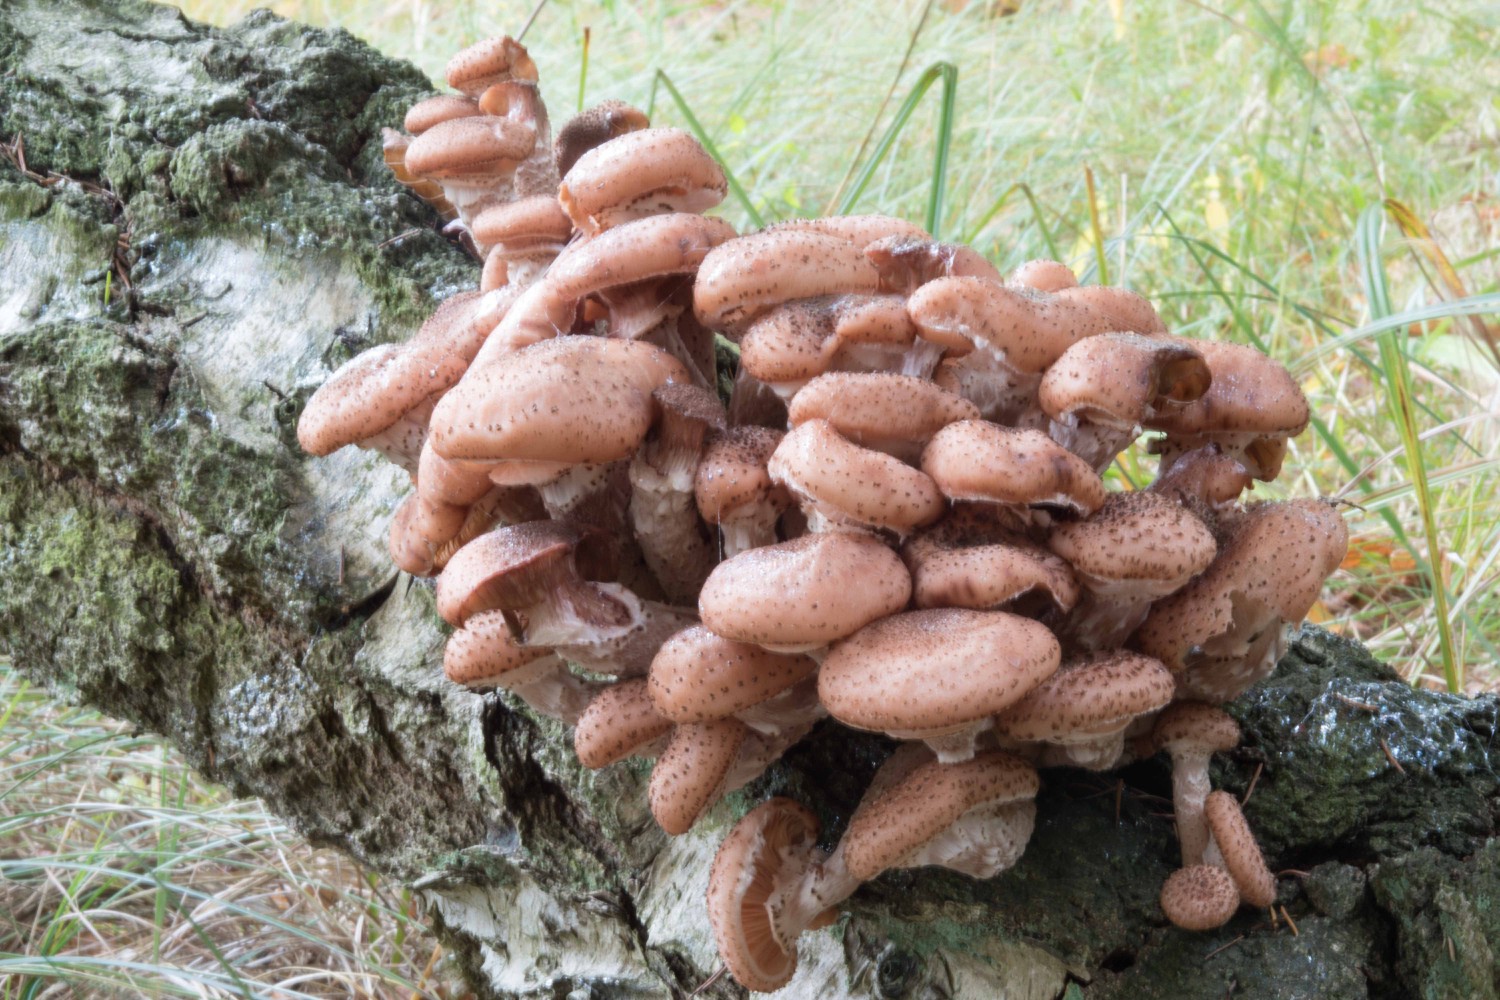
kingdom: Fungi
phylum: Basidiomycota
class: Agaricomycetes
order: Agaricales
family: Physalacriaceae
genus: Armillaria
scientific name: Armillaria ostoyae
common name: mørk honningsvamp
